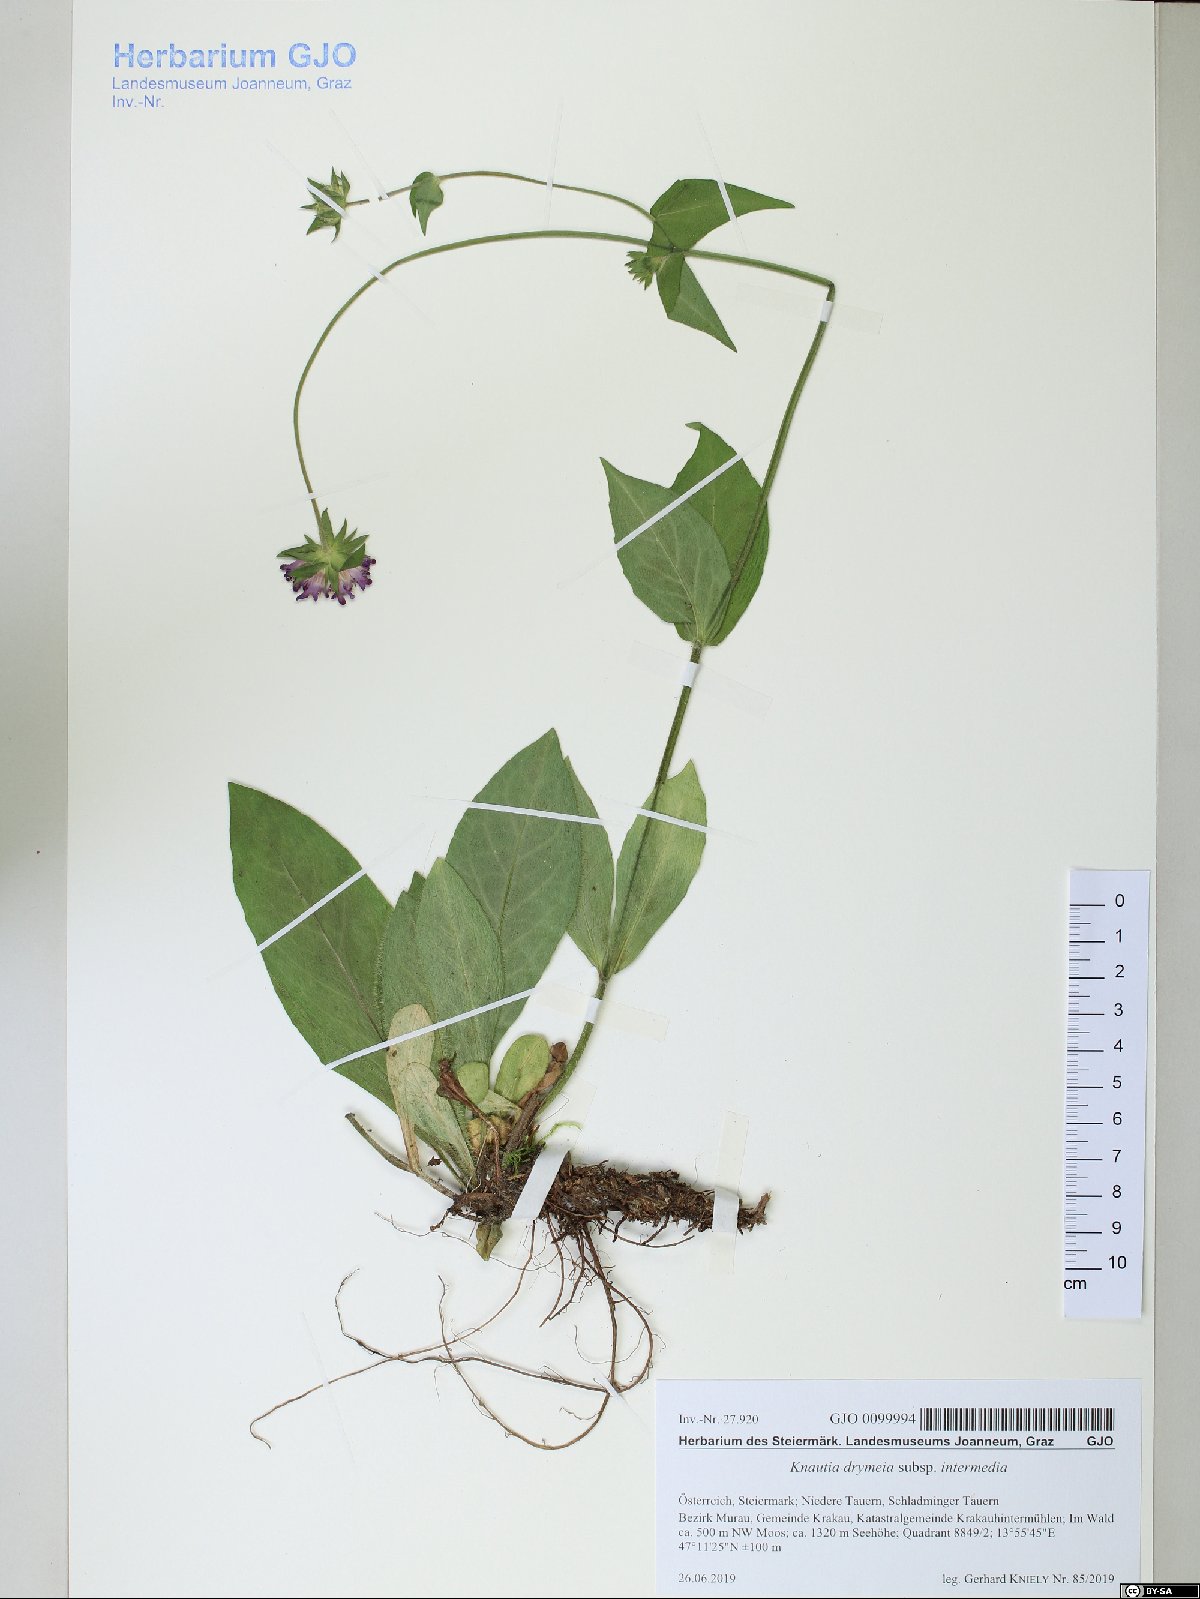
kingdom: Plantae
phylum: Tracheophyta
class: Magnoliopsida
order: Dipsacales
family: Caprifoliaceae
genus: Knautia
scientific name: Knautia drymeia
